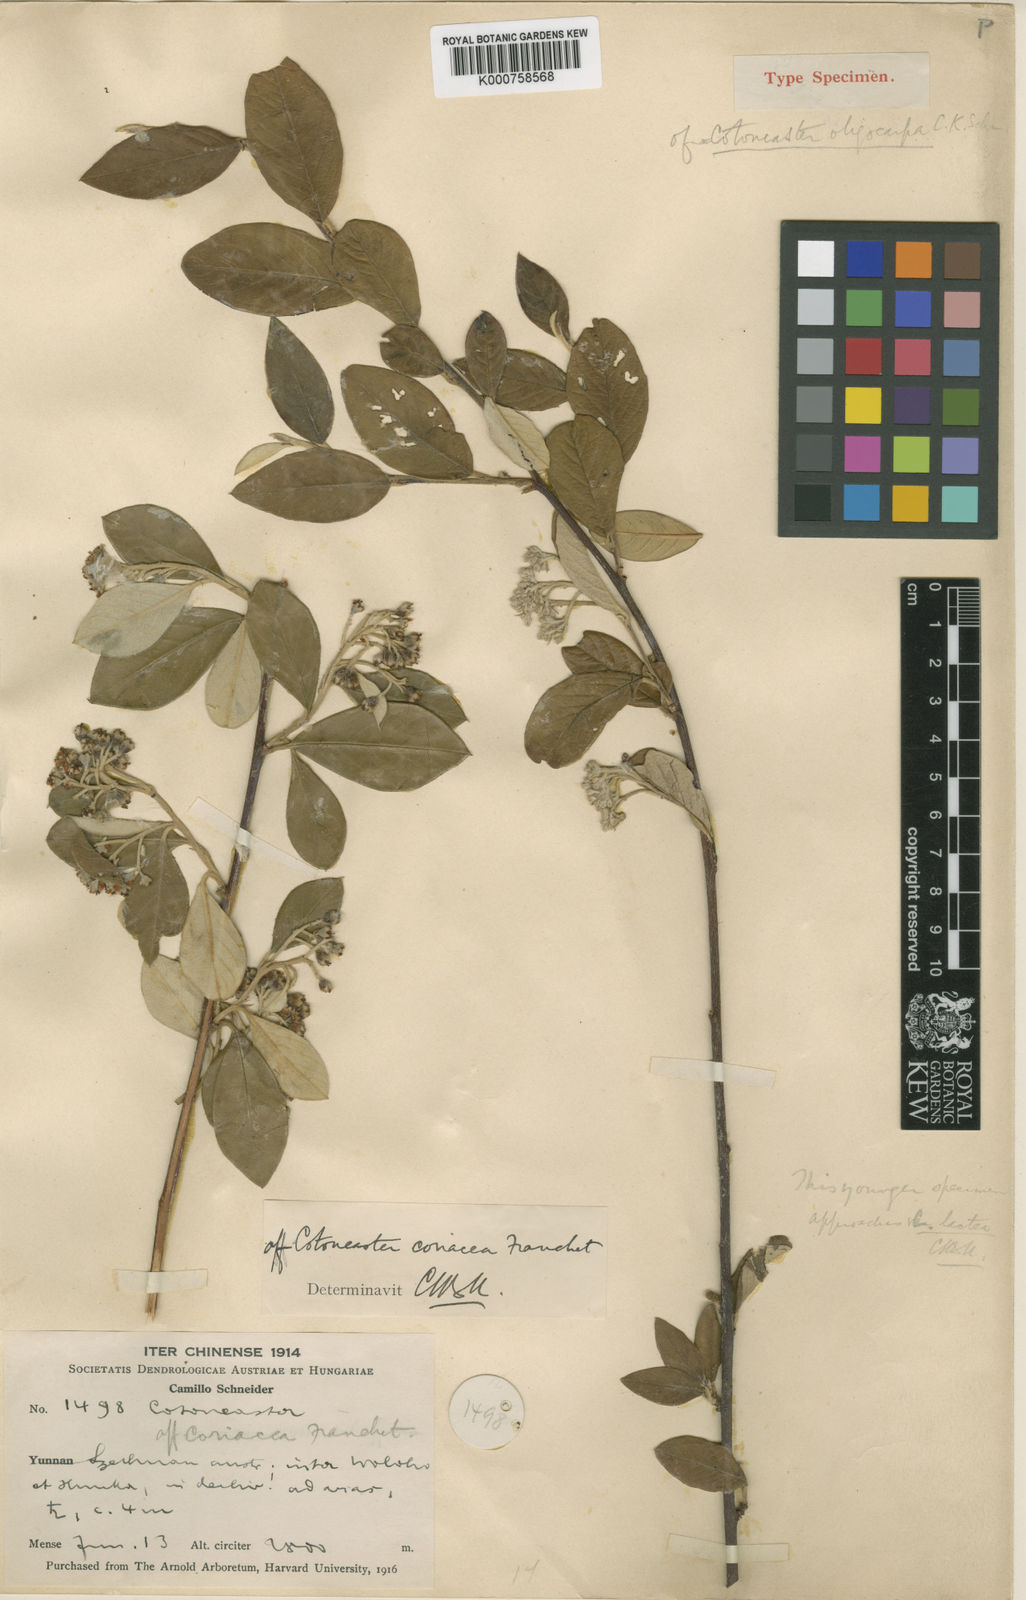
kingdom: Plantae
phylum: Tracheophyta
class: Magnoliopsida
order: Rosales
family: Rosaceae
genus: Cotoneaster
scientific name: Cotoneaster coriaceus
